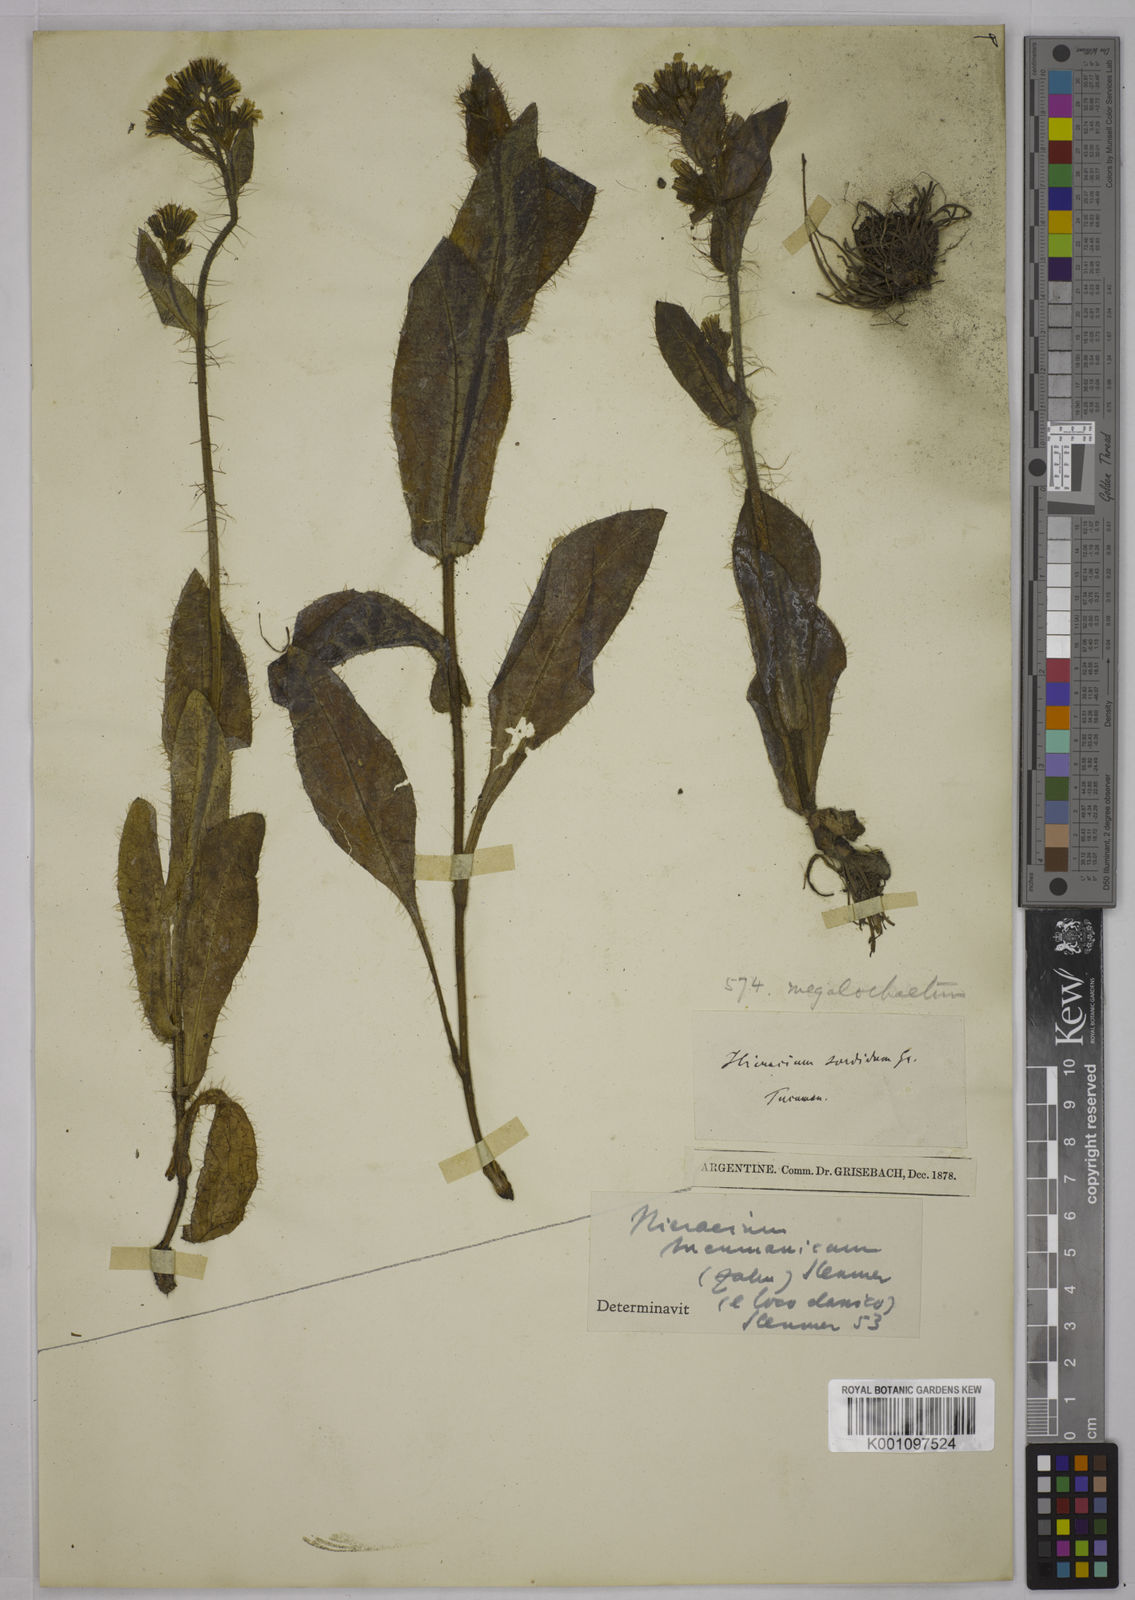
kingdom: Plantae
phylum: Tracheophyta
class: Magnoliopsida
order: Asterales
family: Asteraceae
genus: Hieracium
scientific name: Hieracium megalochaetum
